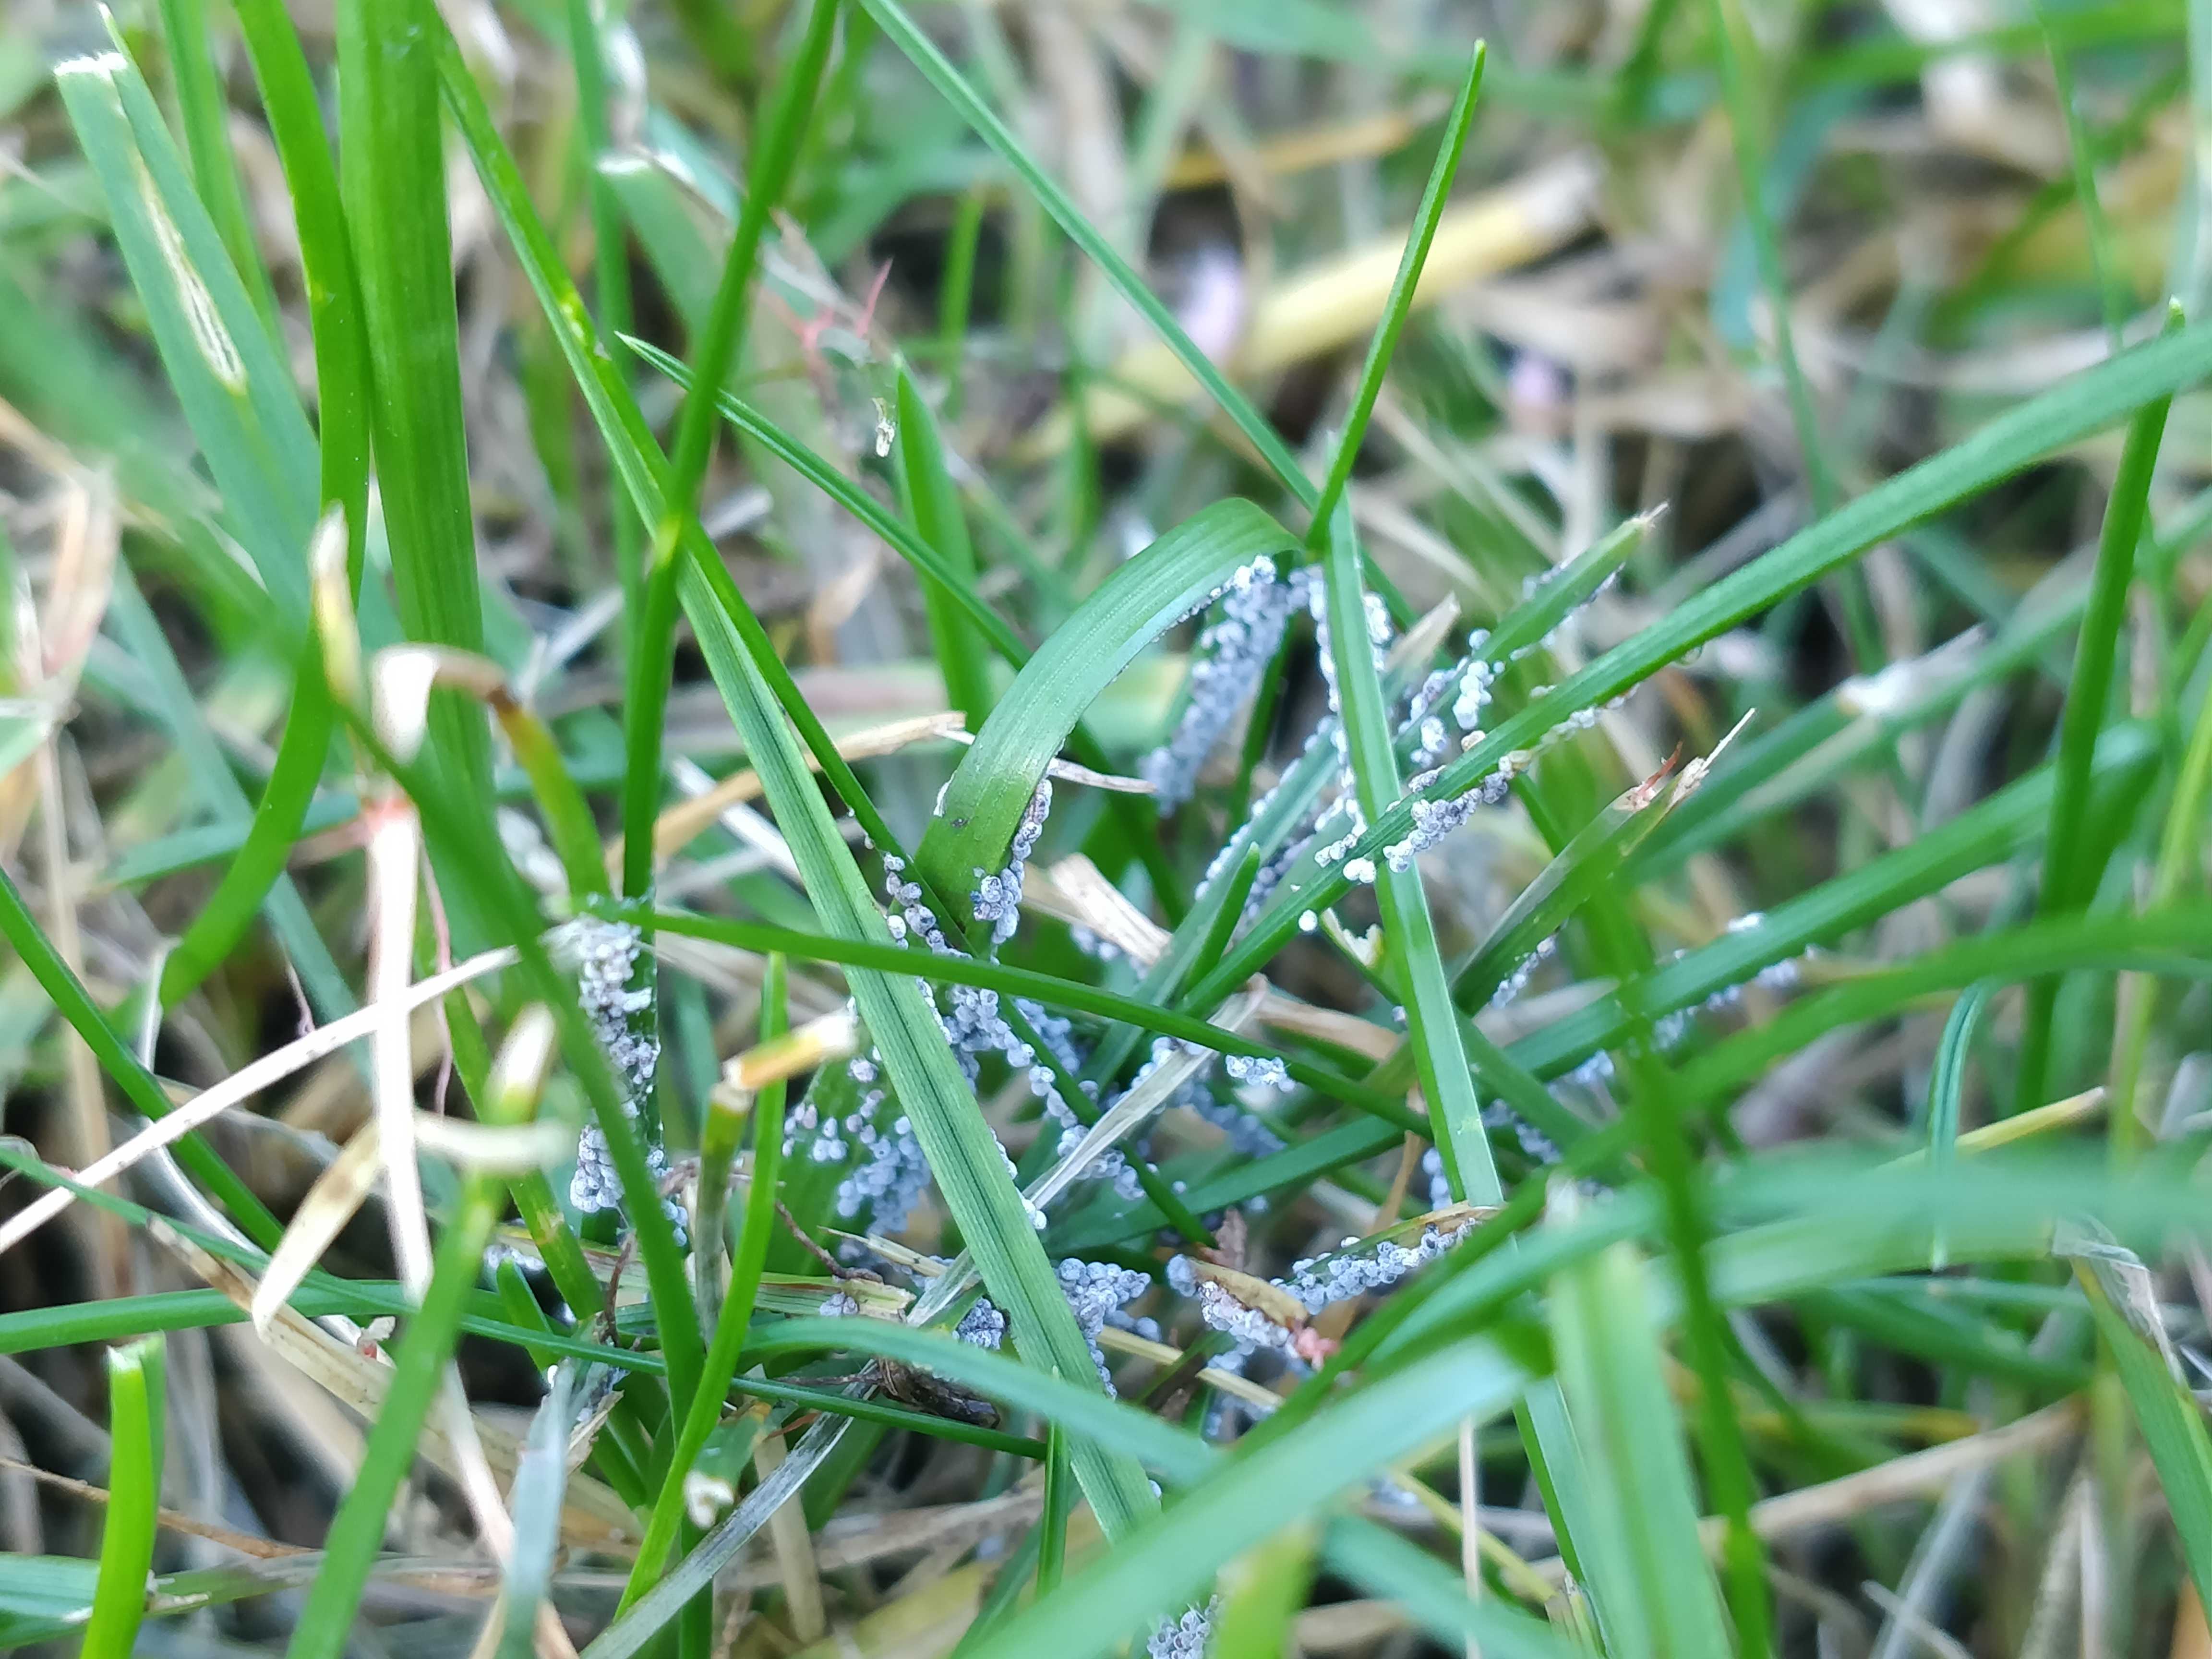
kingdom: Protozoa
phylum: Mycetozoa
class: Myxomycetes
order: Physarales
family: Physaraceae
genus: Physarum
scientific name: Physarum cinereum
